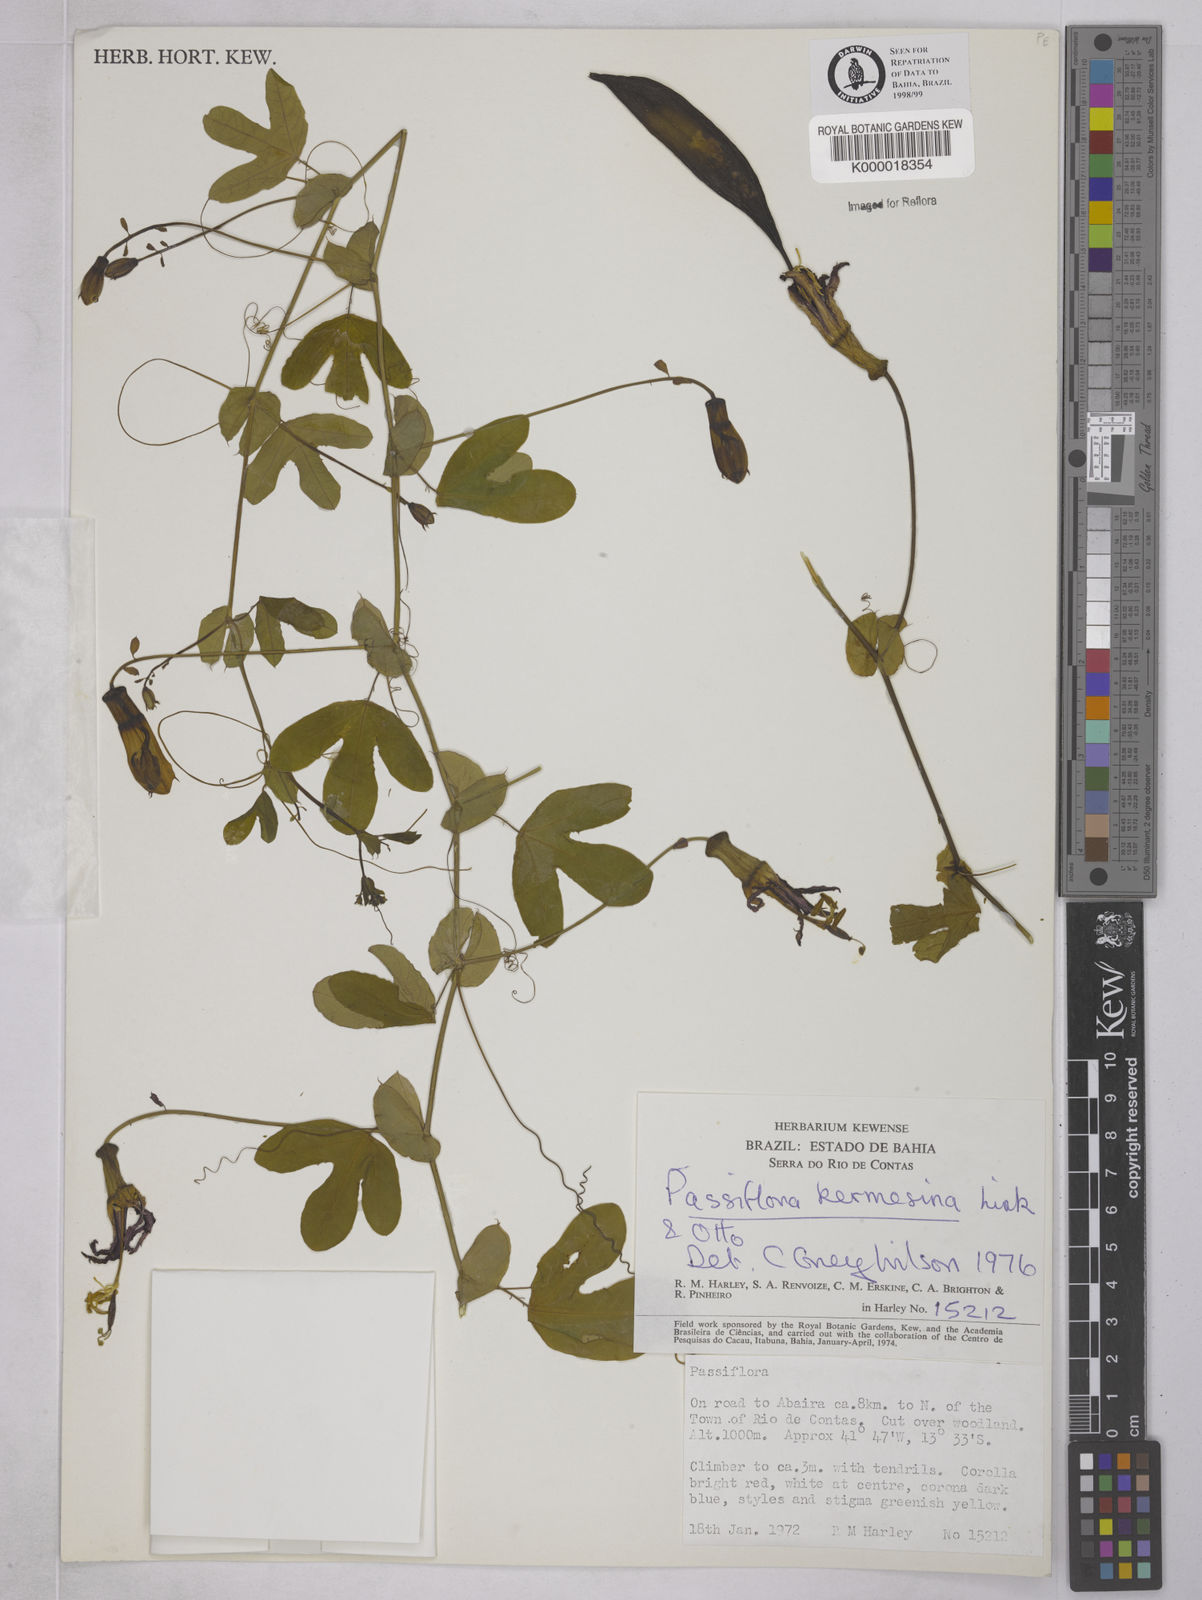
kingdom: Plantae
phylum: Tracheophyta
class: Magnoliopsida
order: Malpighiales
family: Passifloraceae
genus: Passiflora
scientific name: Passiflora kermesina
